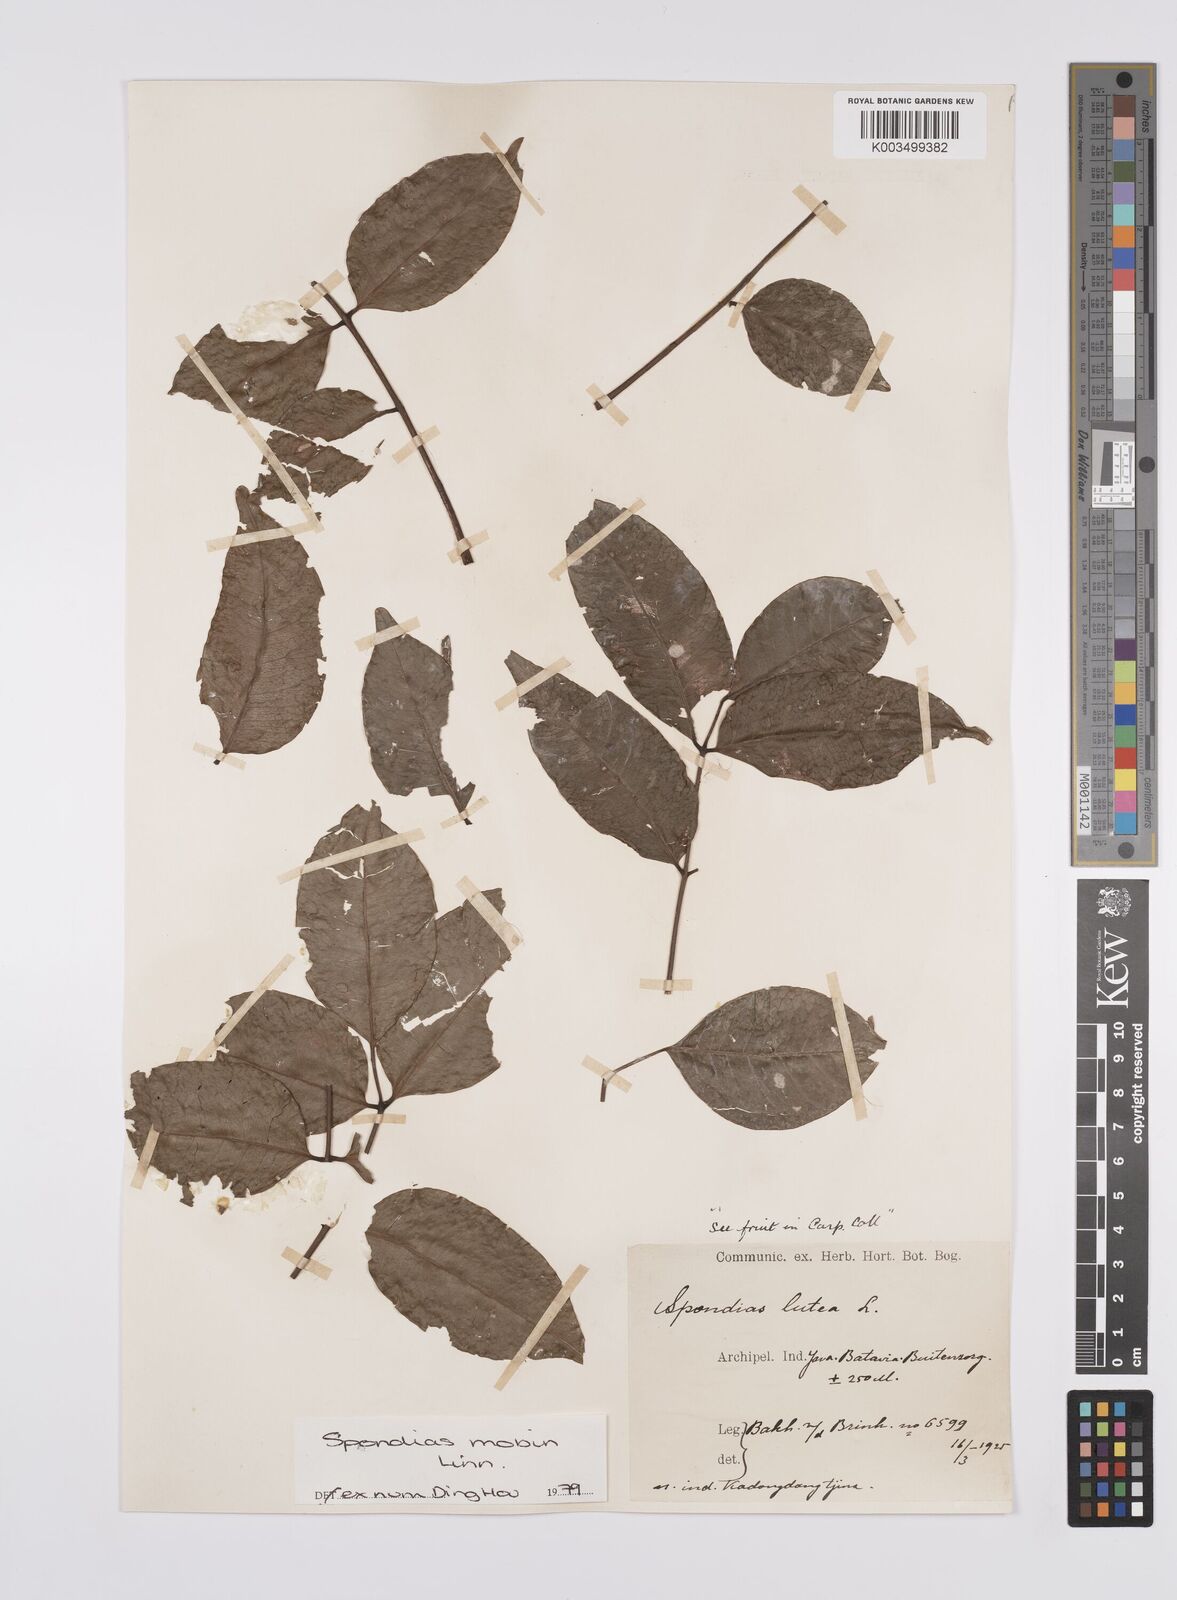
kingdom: Plantae
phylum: Tracheophyta
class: Magnoliopsida
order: Sapindales
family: Anacardiaceae
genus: Spondias
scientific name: Spondias mombin
